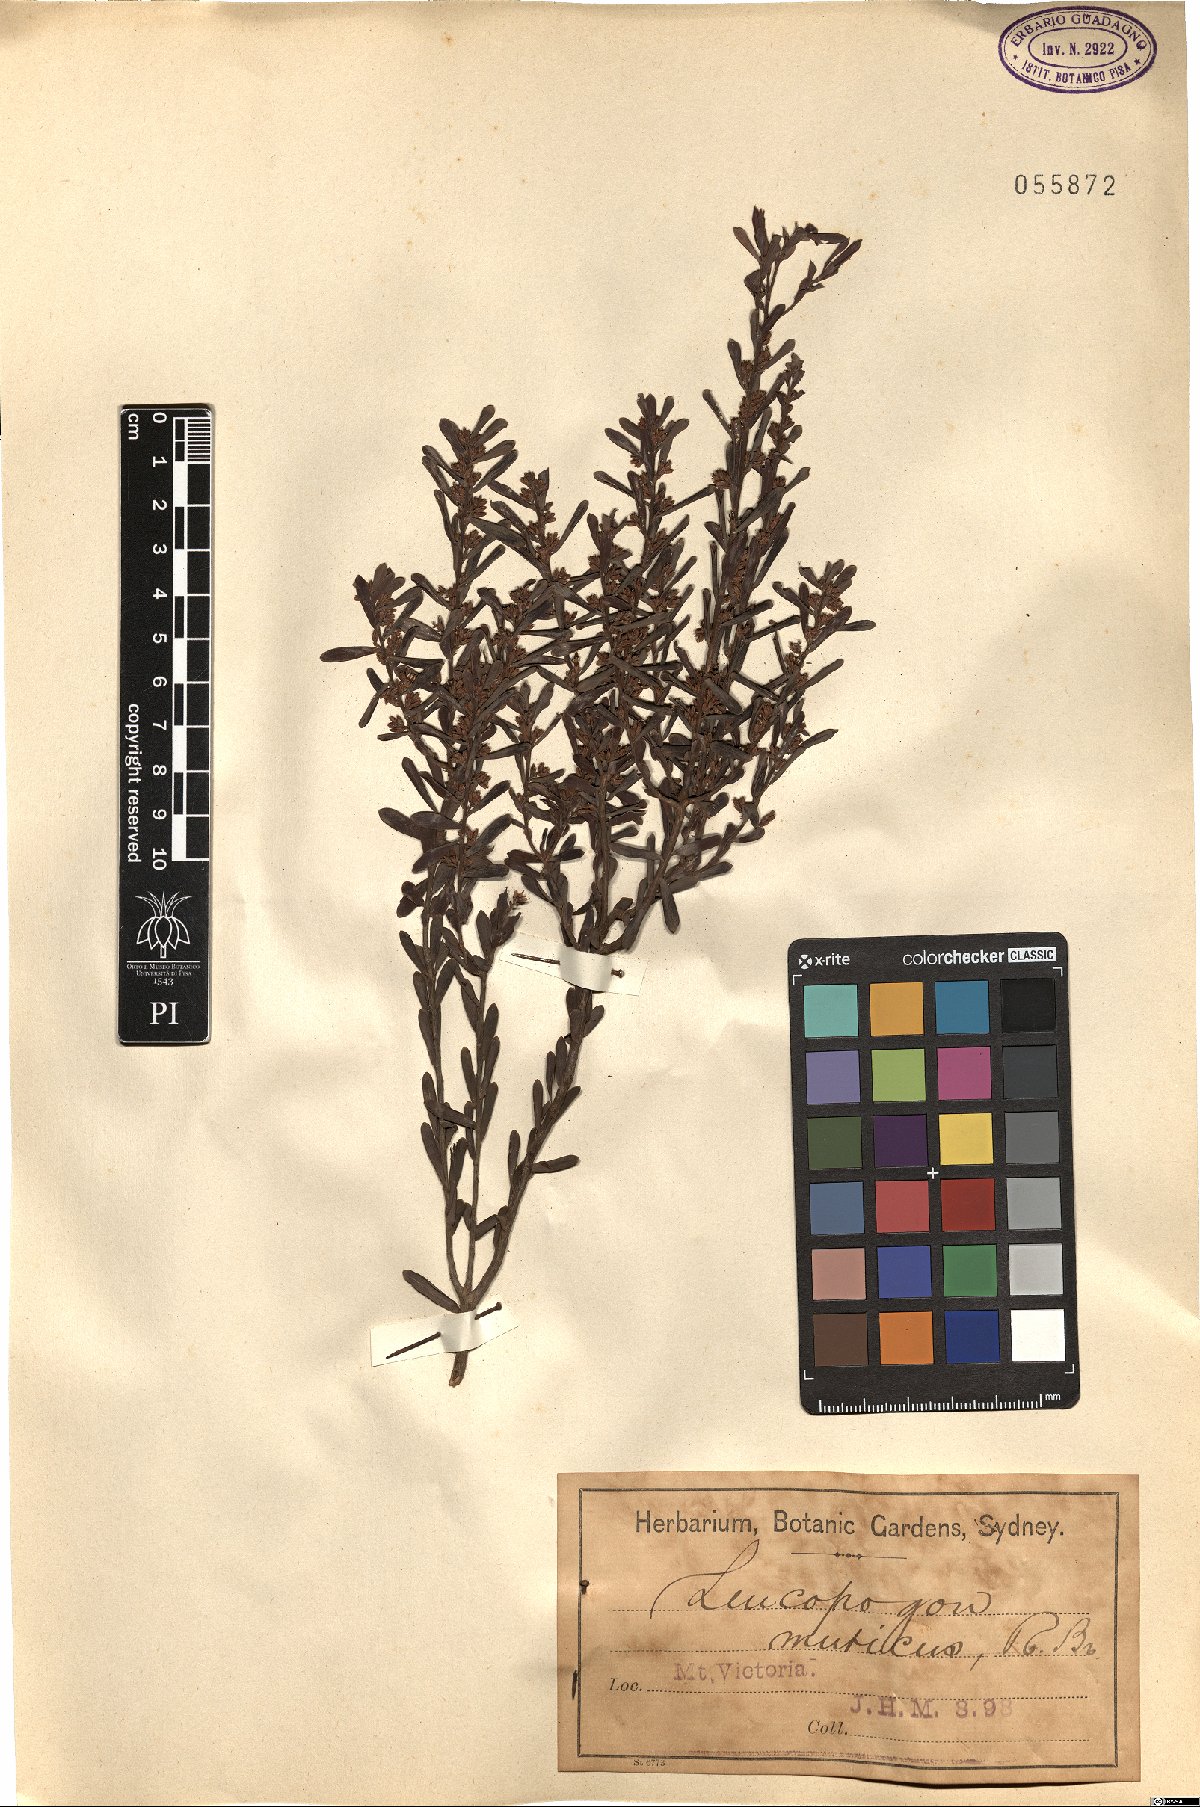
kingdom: Plantae
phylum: Tracheophyta
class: Magnoliopsida
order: Ericales
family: Ericaceae
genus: Styphelia
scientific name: Styphelia mutica
